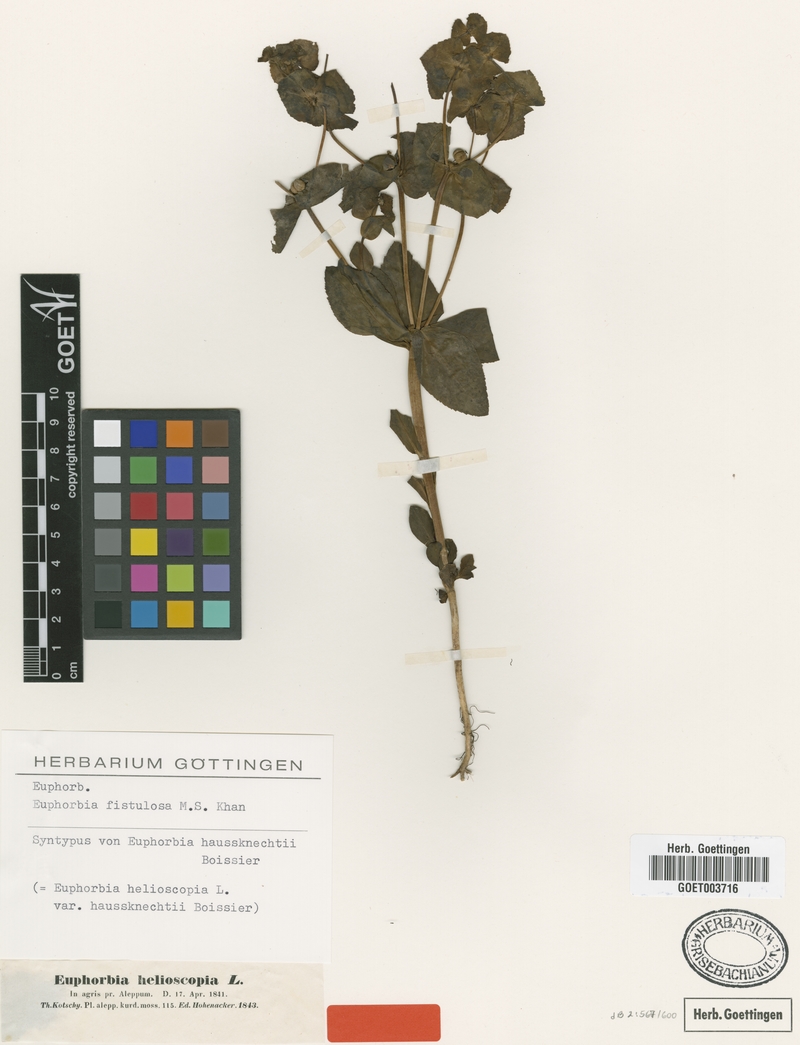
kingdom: Plantae
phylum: Tracheophyta
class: Magnoliopsida
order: Malpighiales
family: Euphorbiaceae
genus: Euphorbia
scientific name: Euphorbia fistulosa
